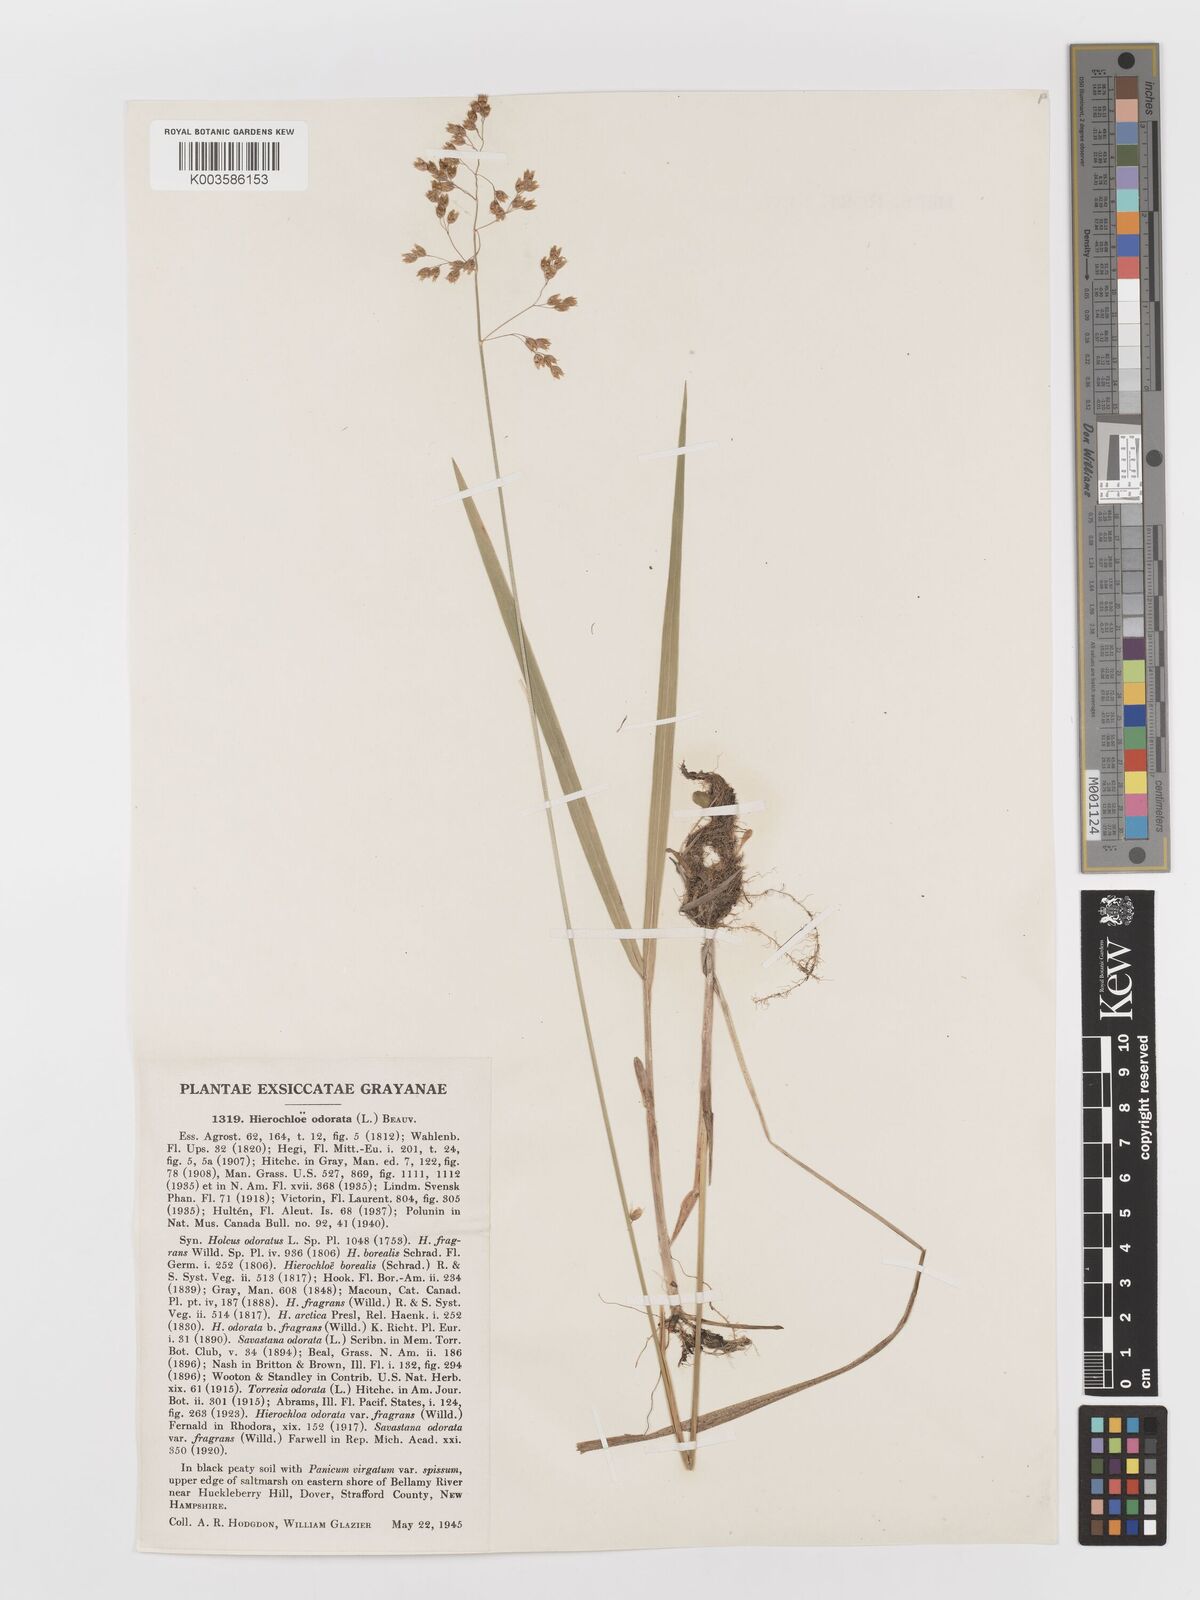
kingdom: Plantae
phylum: Tracheophyta
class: Liliopsida
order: Poales
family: Poaceae
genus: Anthoxanthum
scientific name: Anthoxanthum nitens
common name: Holy grass
